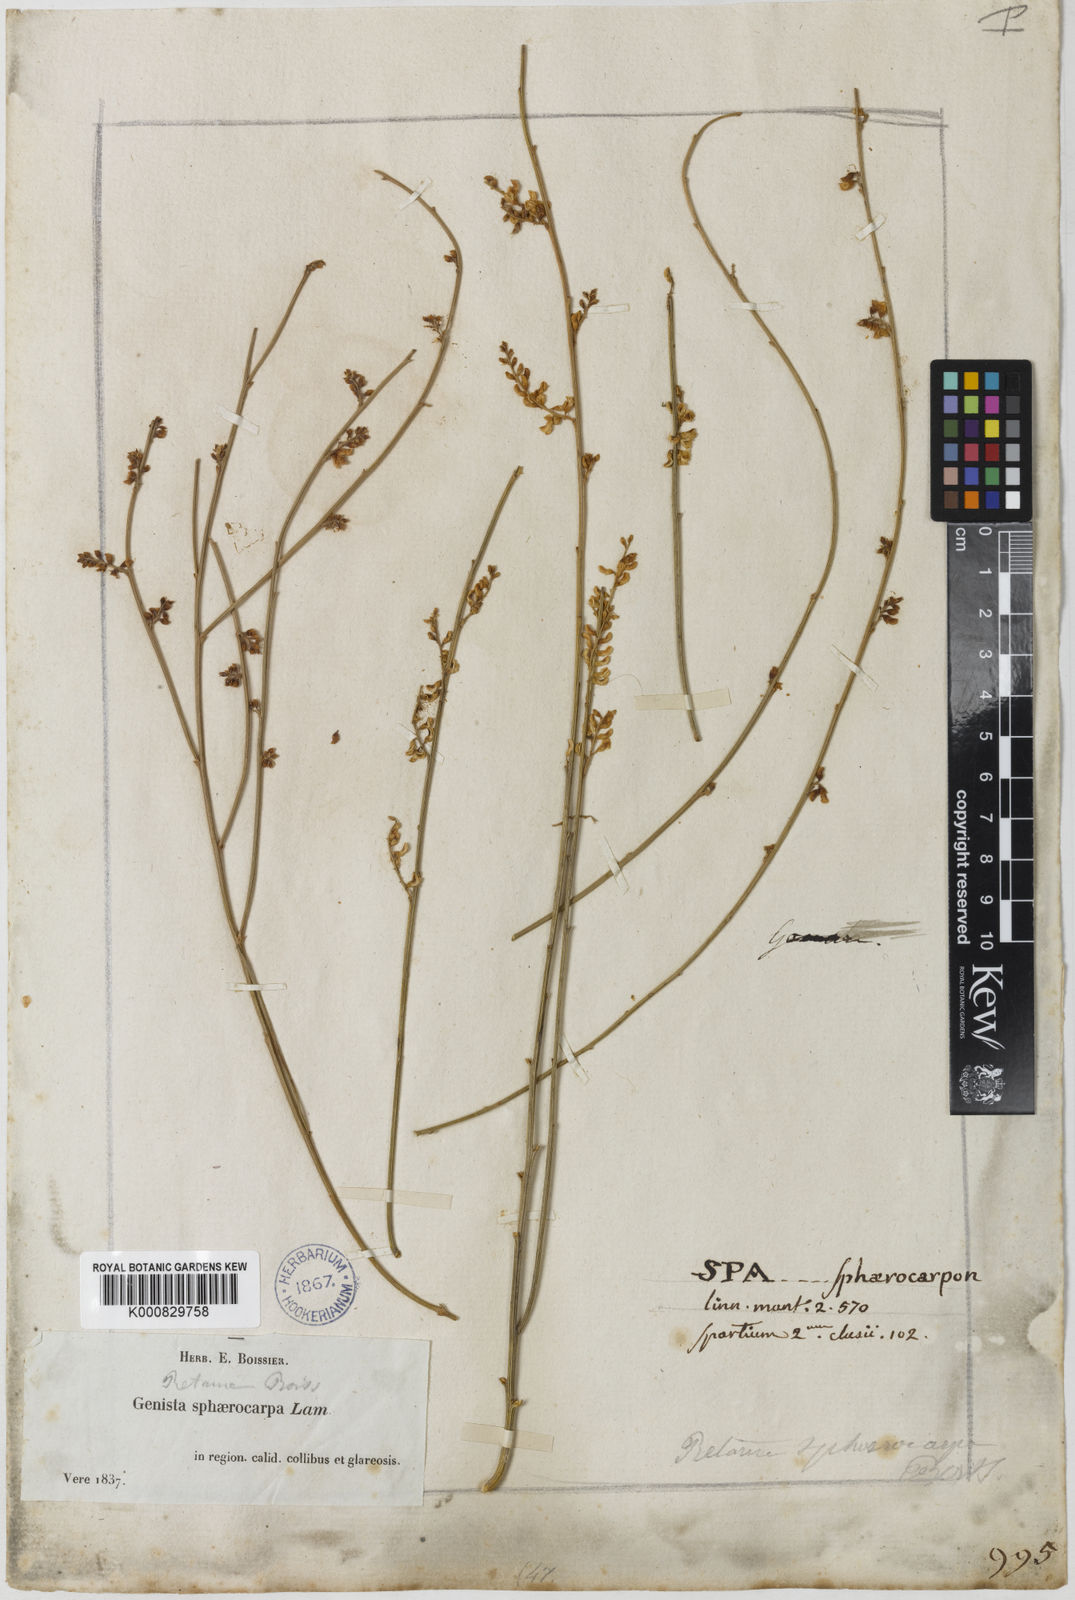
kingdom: Plantae
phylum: Tracheophyta
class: Magnoliopsida
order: Fabales
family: Fabaceae
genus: Retama
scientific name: Retama sphaerocarpa
